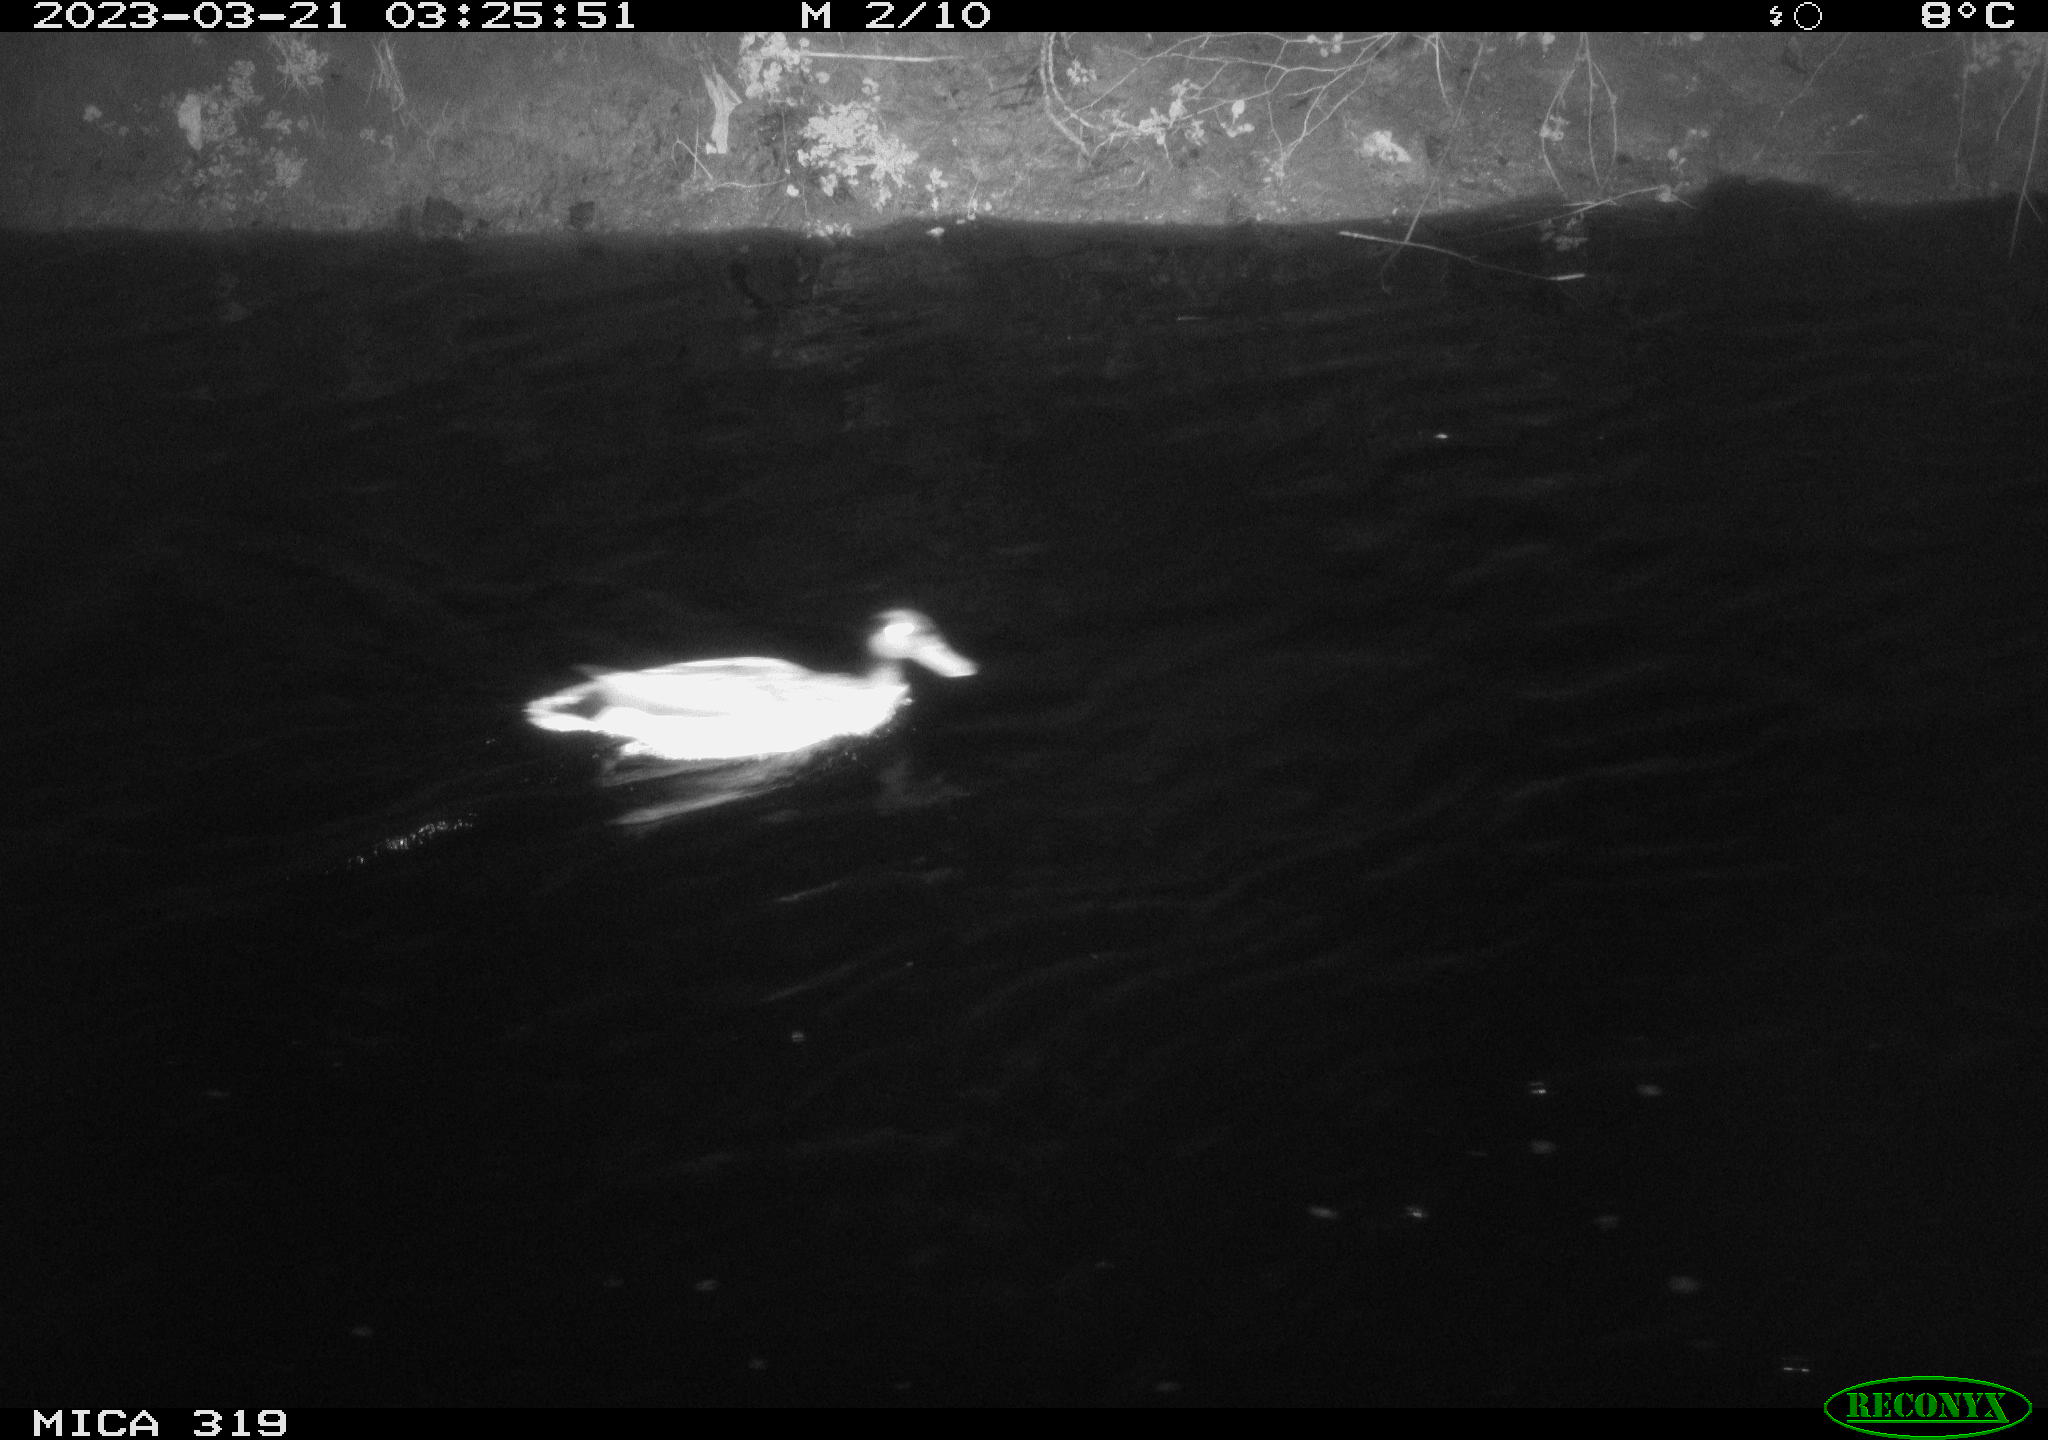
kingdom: Animalia
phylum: Chordata
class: Aves
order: Anseriformes
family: Anatidae
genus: Anas
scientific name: Anas
